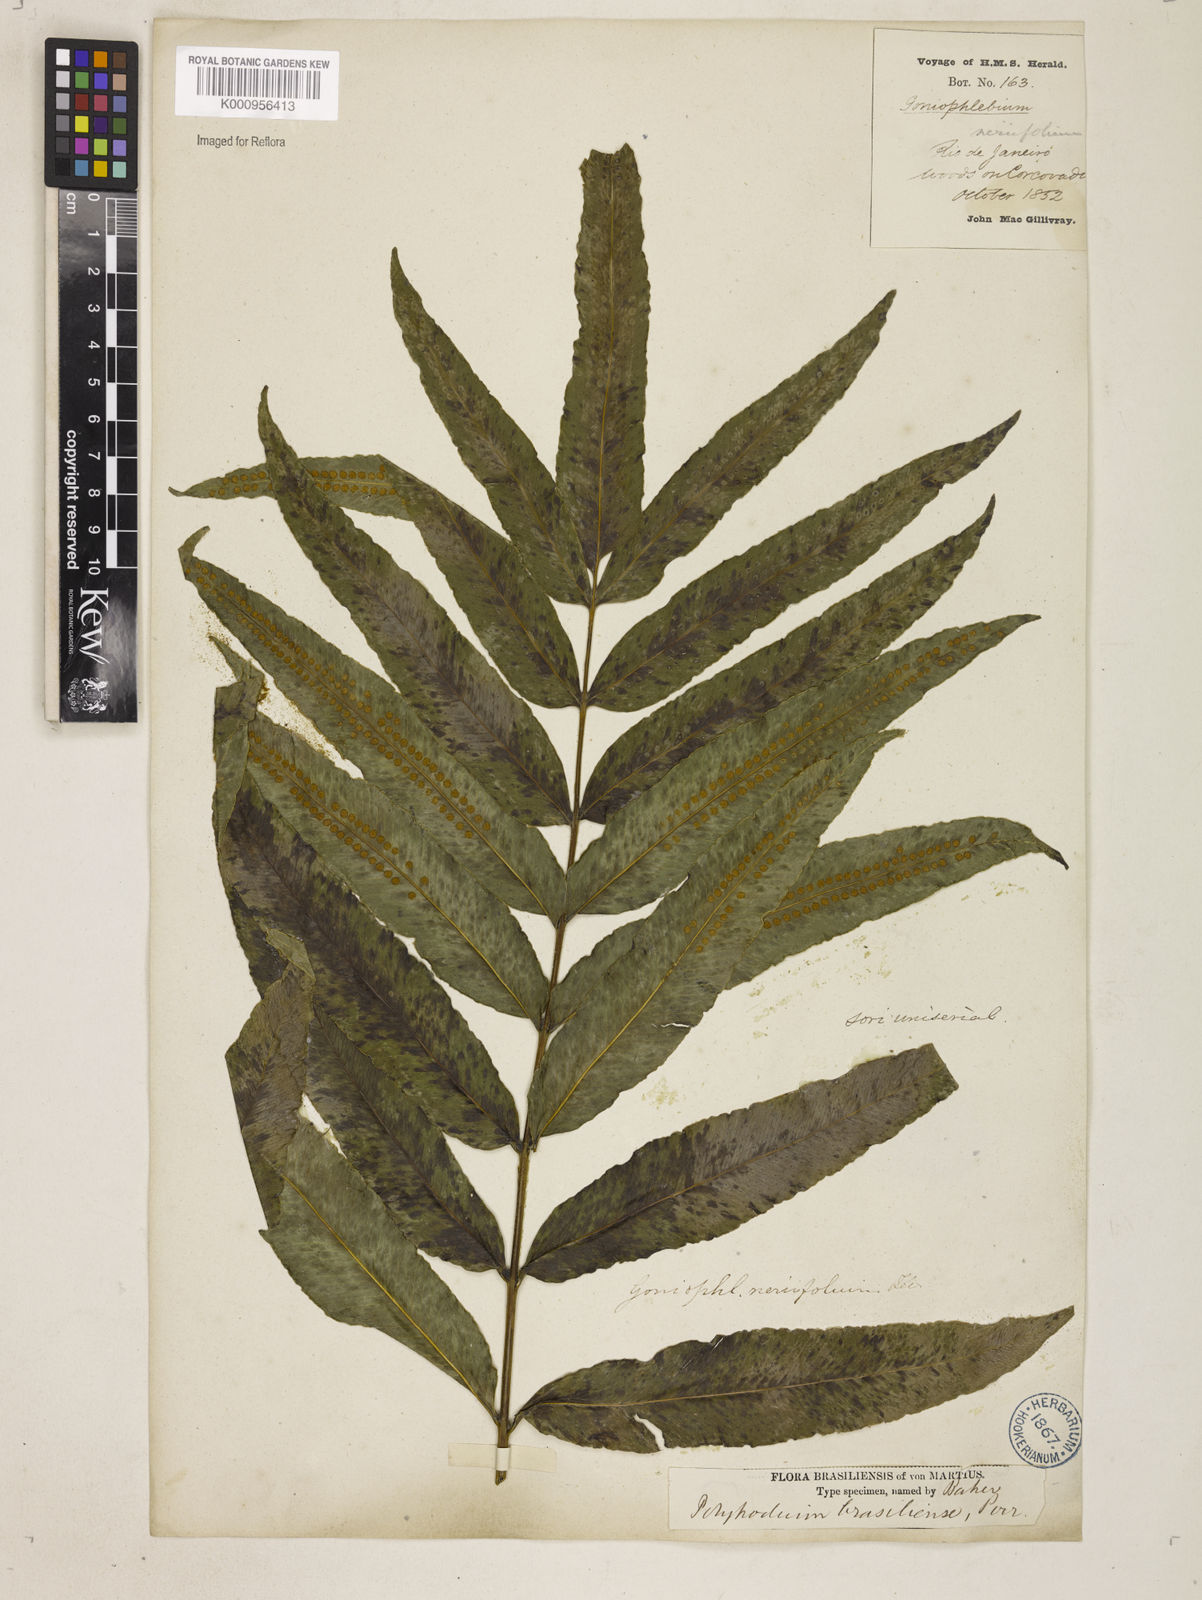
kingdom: Plantae
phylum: Tracheophyta
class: Polypodiopsida
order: Polypodiales
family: Polypodiaceae
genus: Serpocaulon
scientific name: Serpocaulon triseriale
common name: Angle-vein fern
